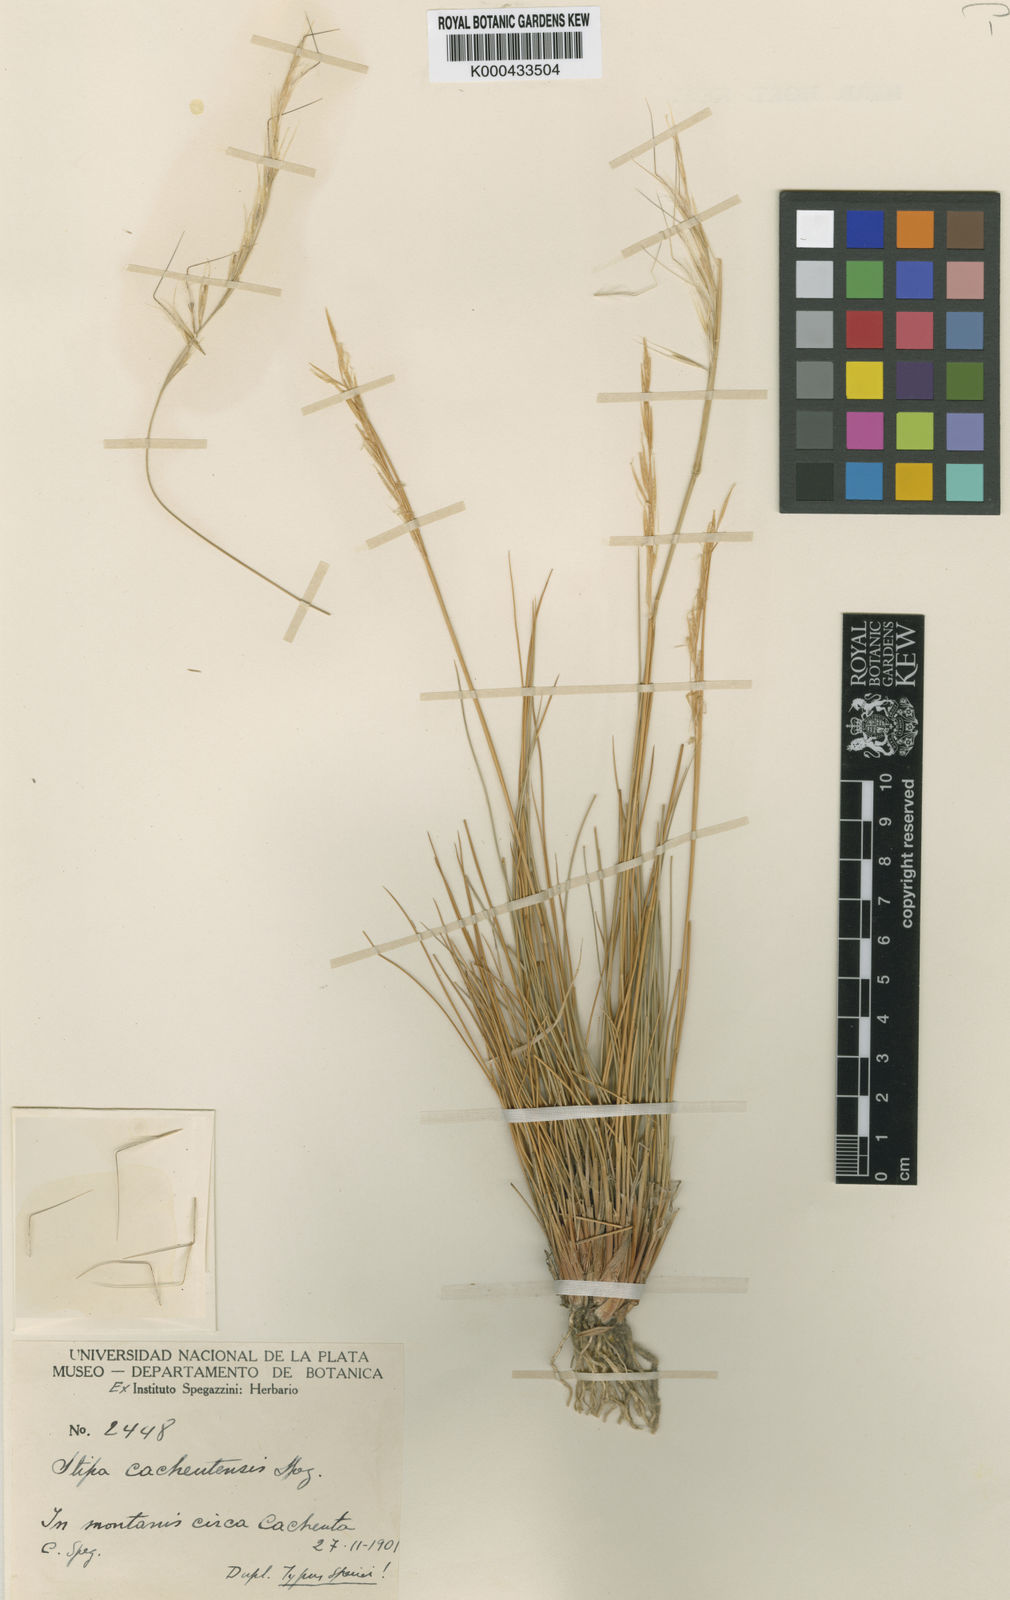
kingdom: Plantae
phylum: Tracheophyta
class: Liliopsida
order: Poales
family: Poaceae
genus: Pappostipa
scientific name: Pappostipa vaginata
